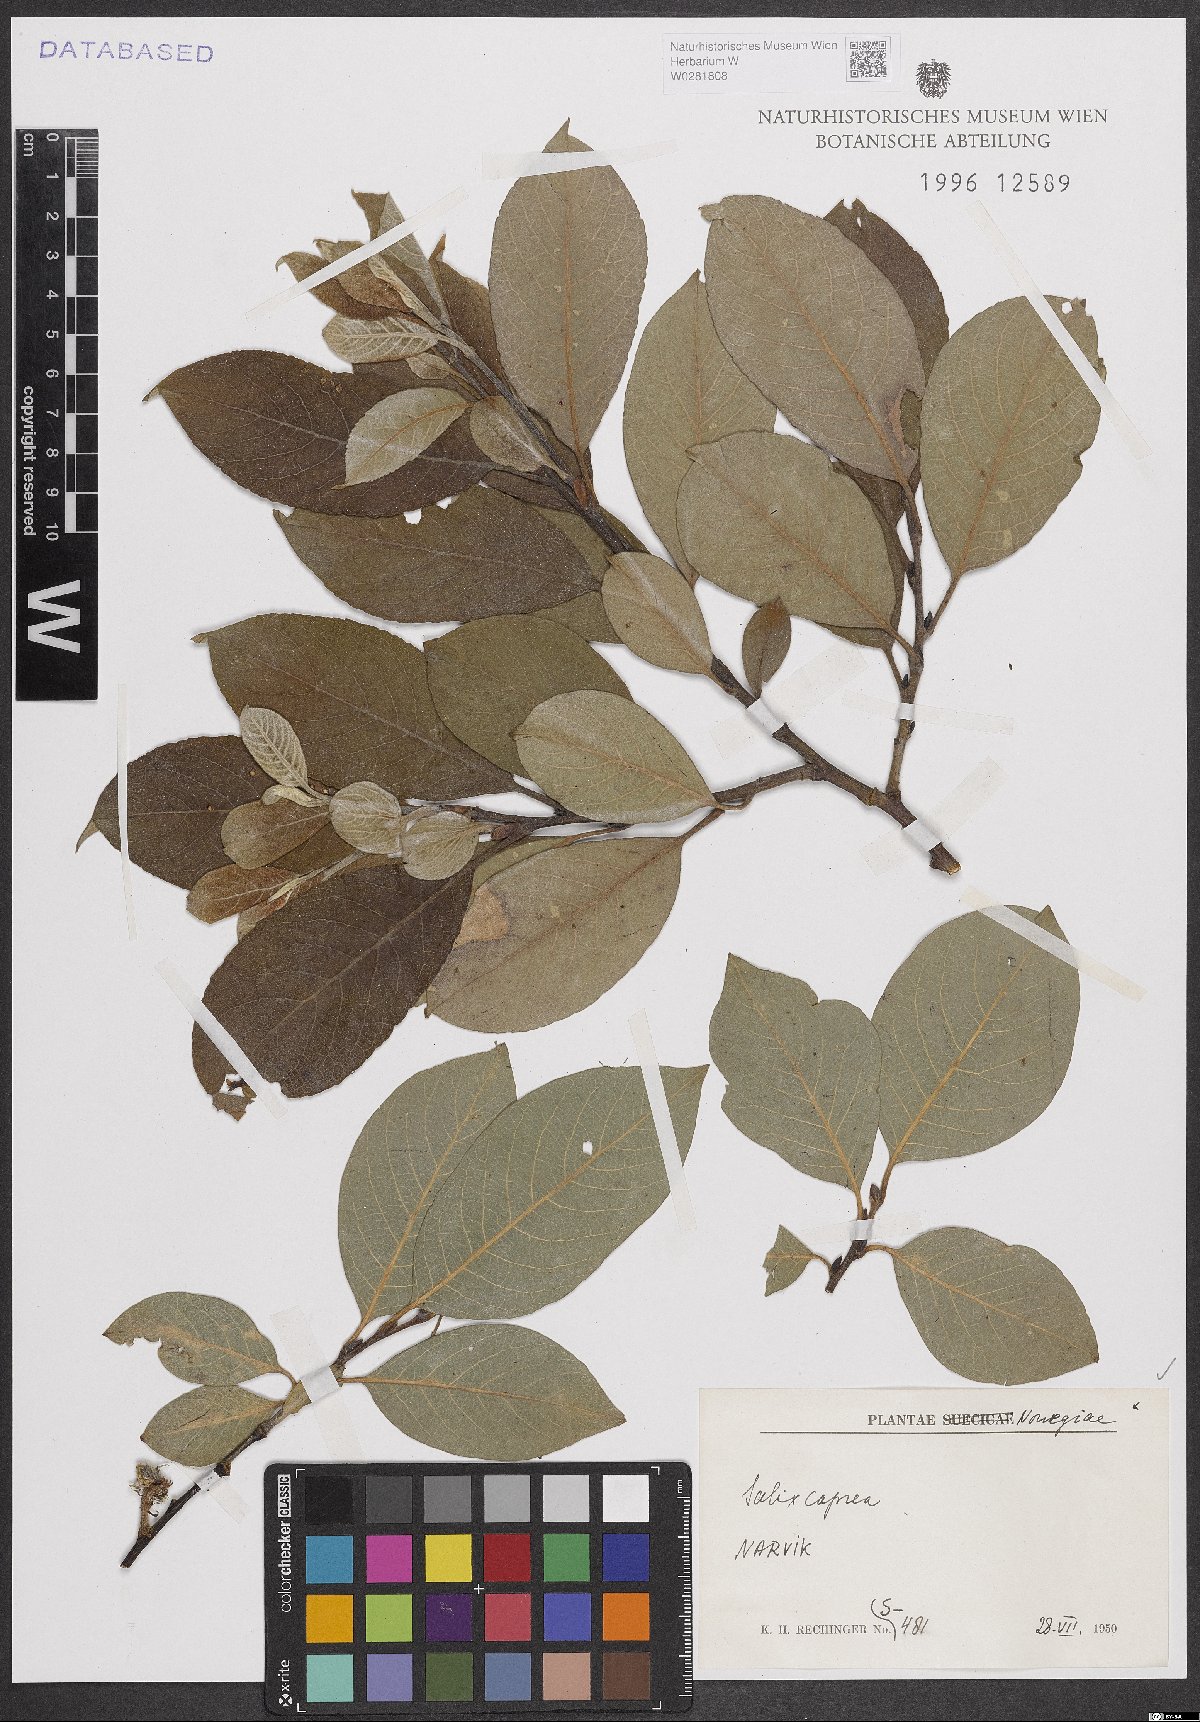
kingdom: Plantae
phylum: Tracheophyta
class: Magnoliopsida
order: Malpighiales
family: Salicaceae
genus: Salix
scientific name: Salix caprea
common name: Goat willow
